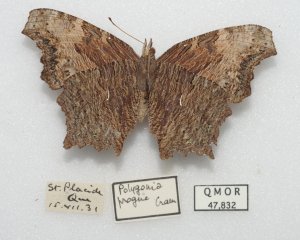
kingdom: Animalia
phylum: Arthropoda
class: Insecta
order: Lepidoptera
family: Nymphalidae
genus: Polygonia
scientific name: Polygonia faunus
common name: Green Comma
